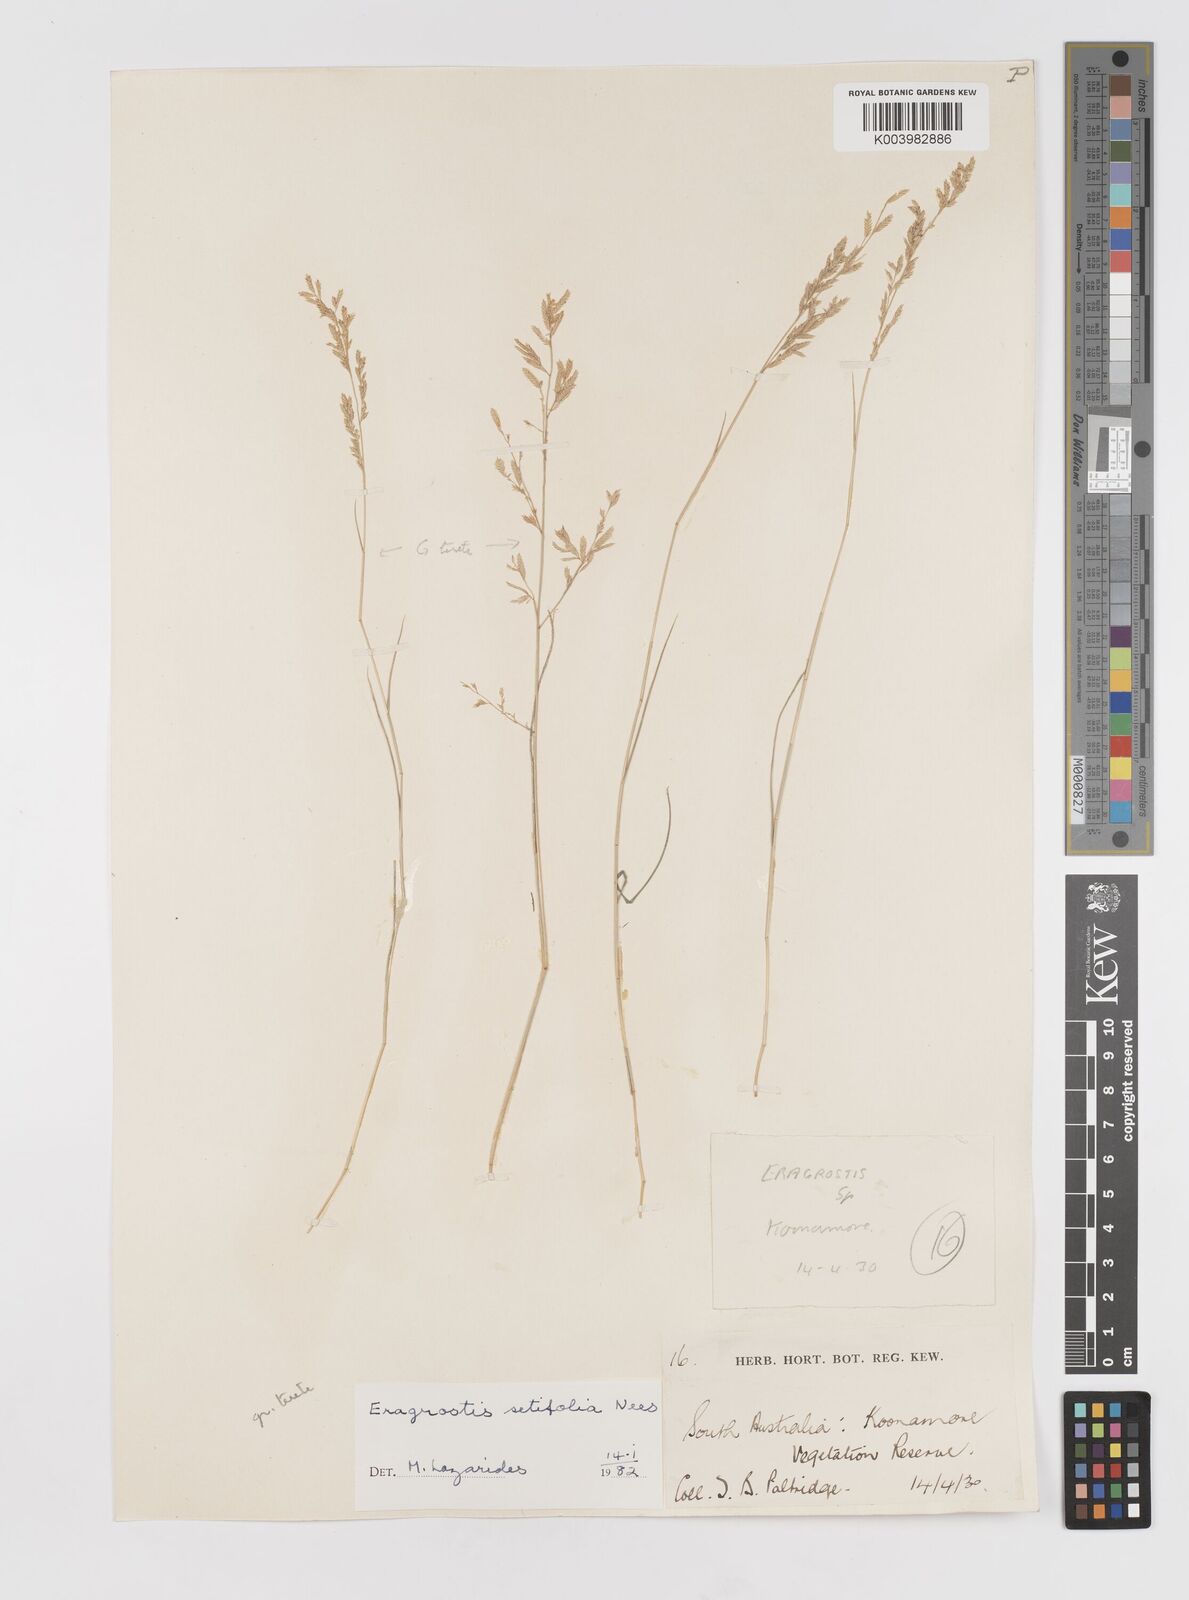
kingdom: Plantae
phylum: Tracheophyta
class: Liliopsida
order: Poales
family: Poaceae
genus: Eragrostis
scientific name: Eragrostis setifolia
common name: Bristleleaf lovegrass
